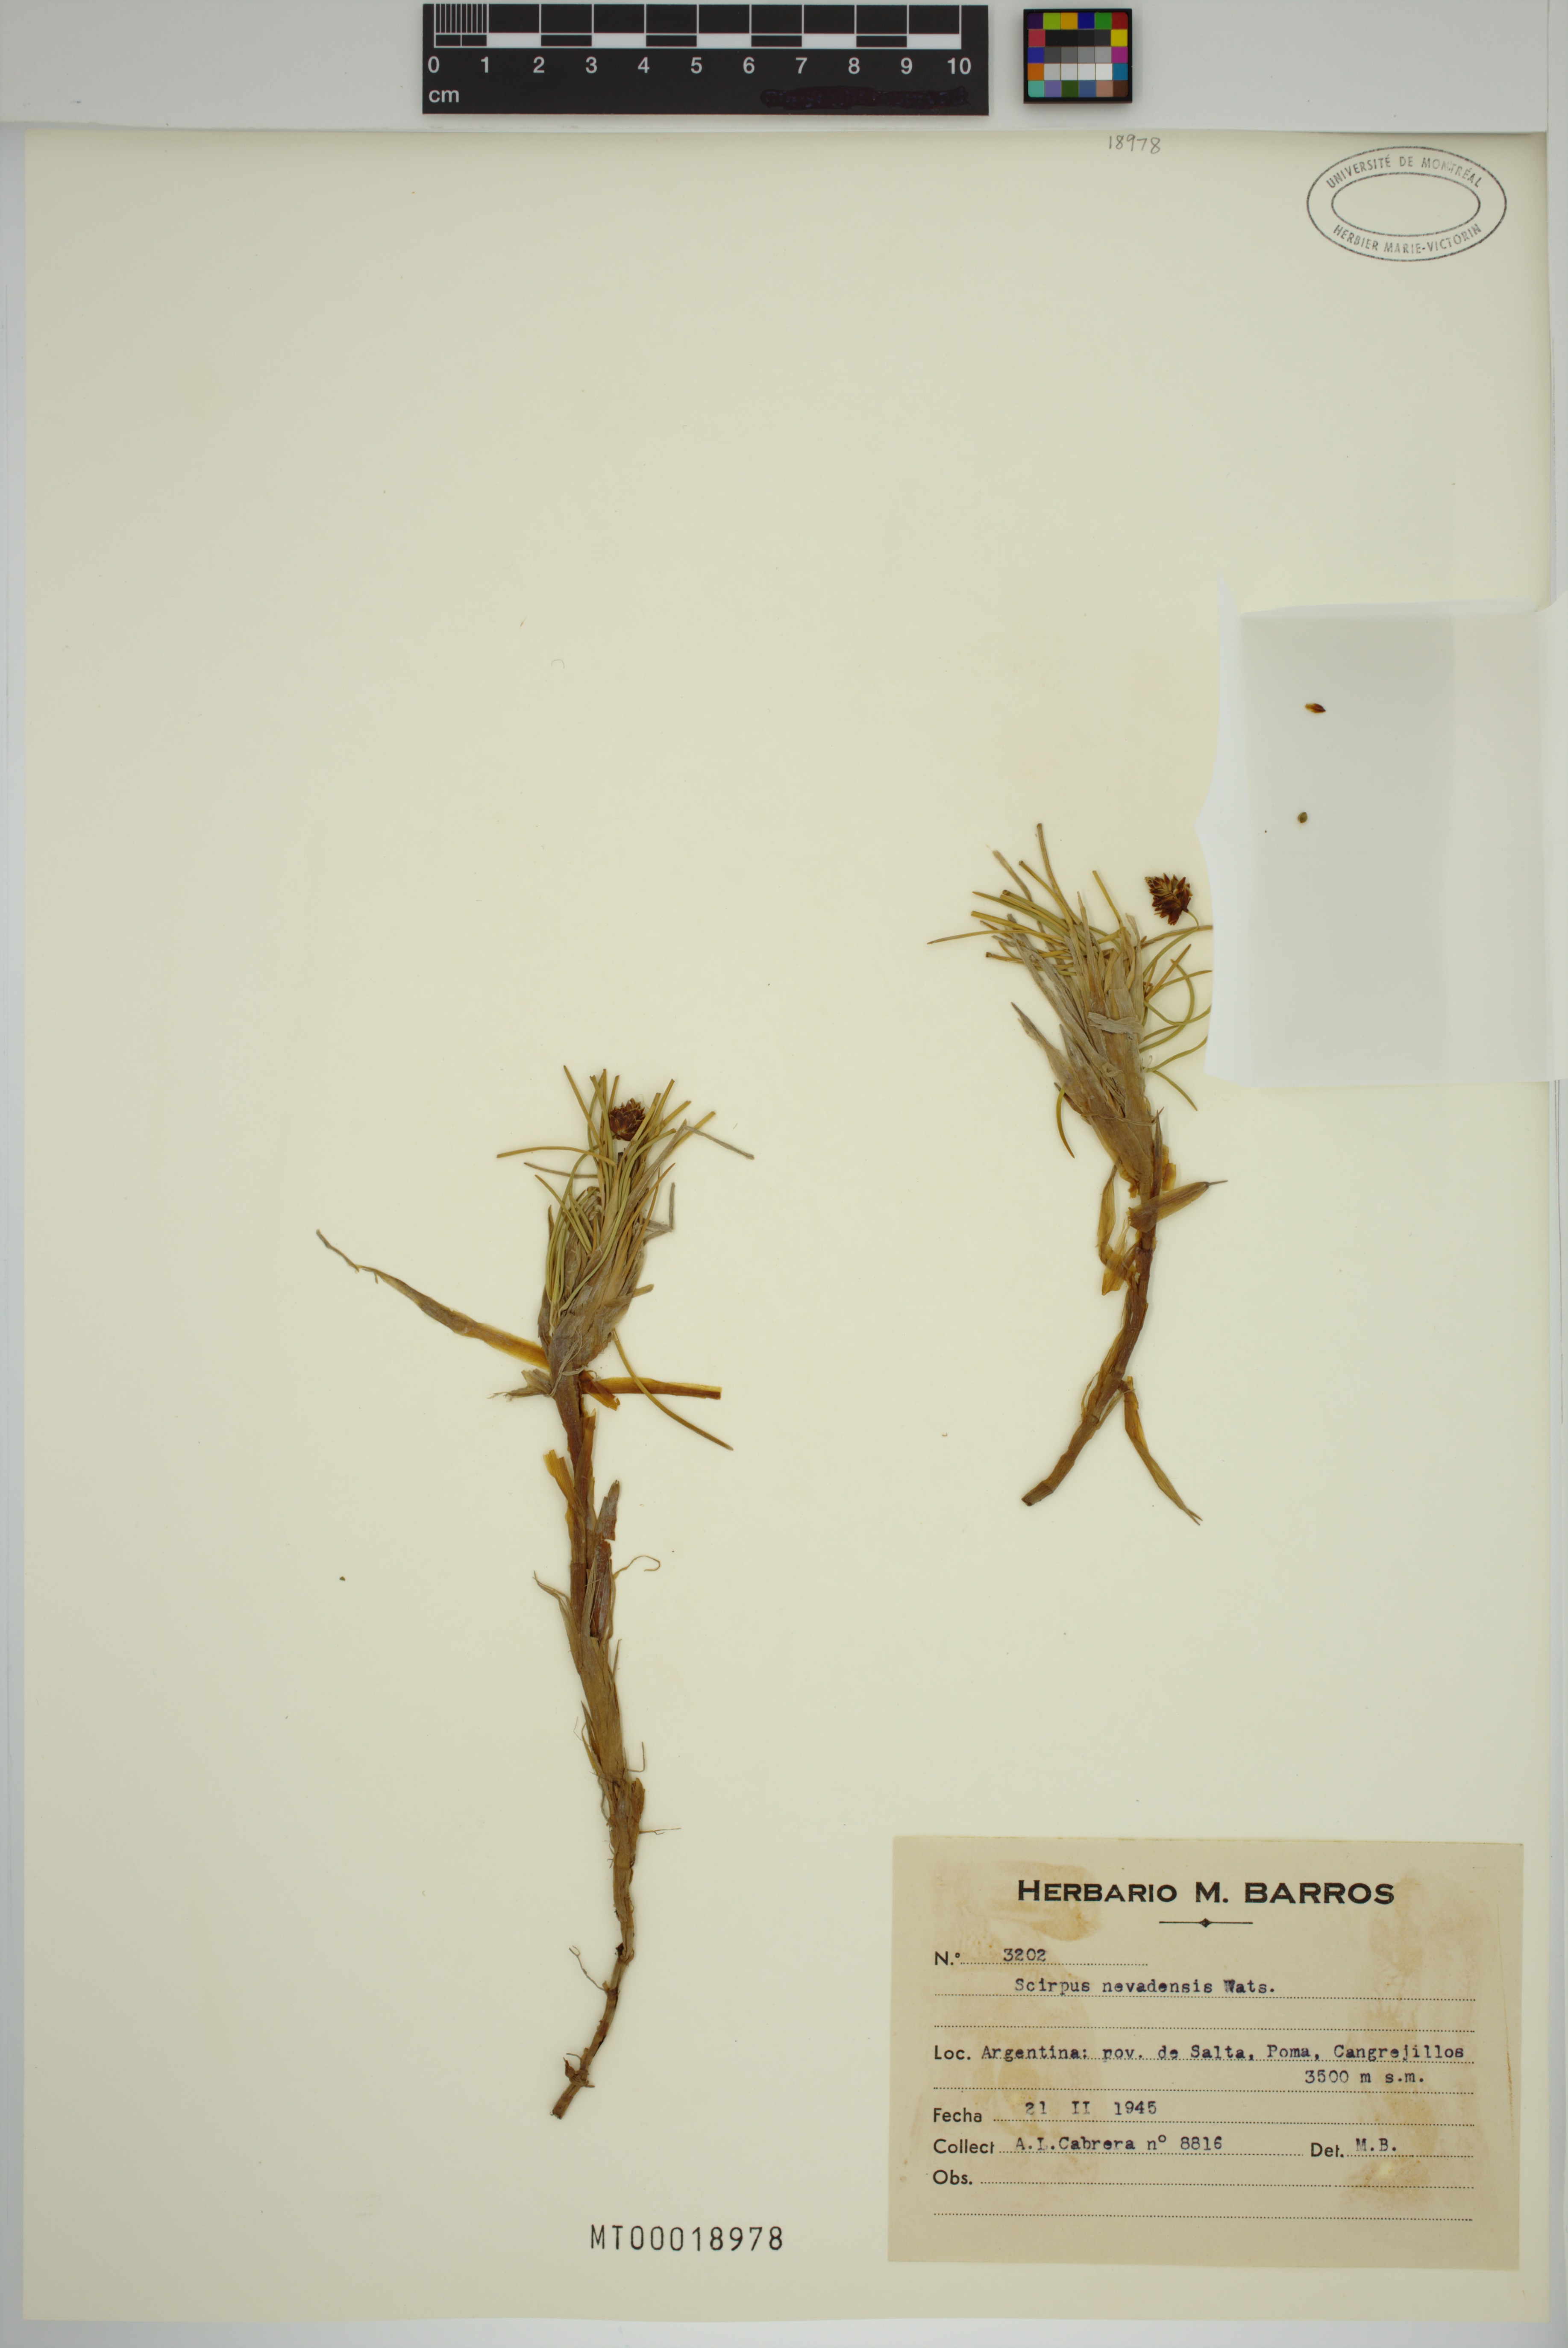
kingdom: Plantae
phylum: Tracheophyta
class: Liliopsida
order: Poales
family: Cyperaceae
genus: Amphiscirpus
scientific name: Amphiscirpus nevadensis
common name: Nevada bulrush
